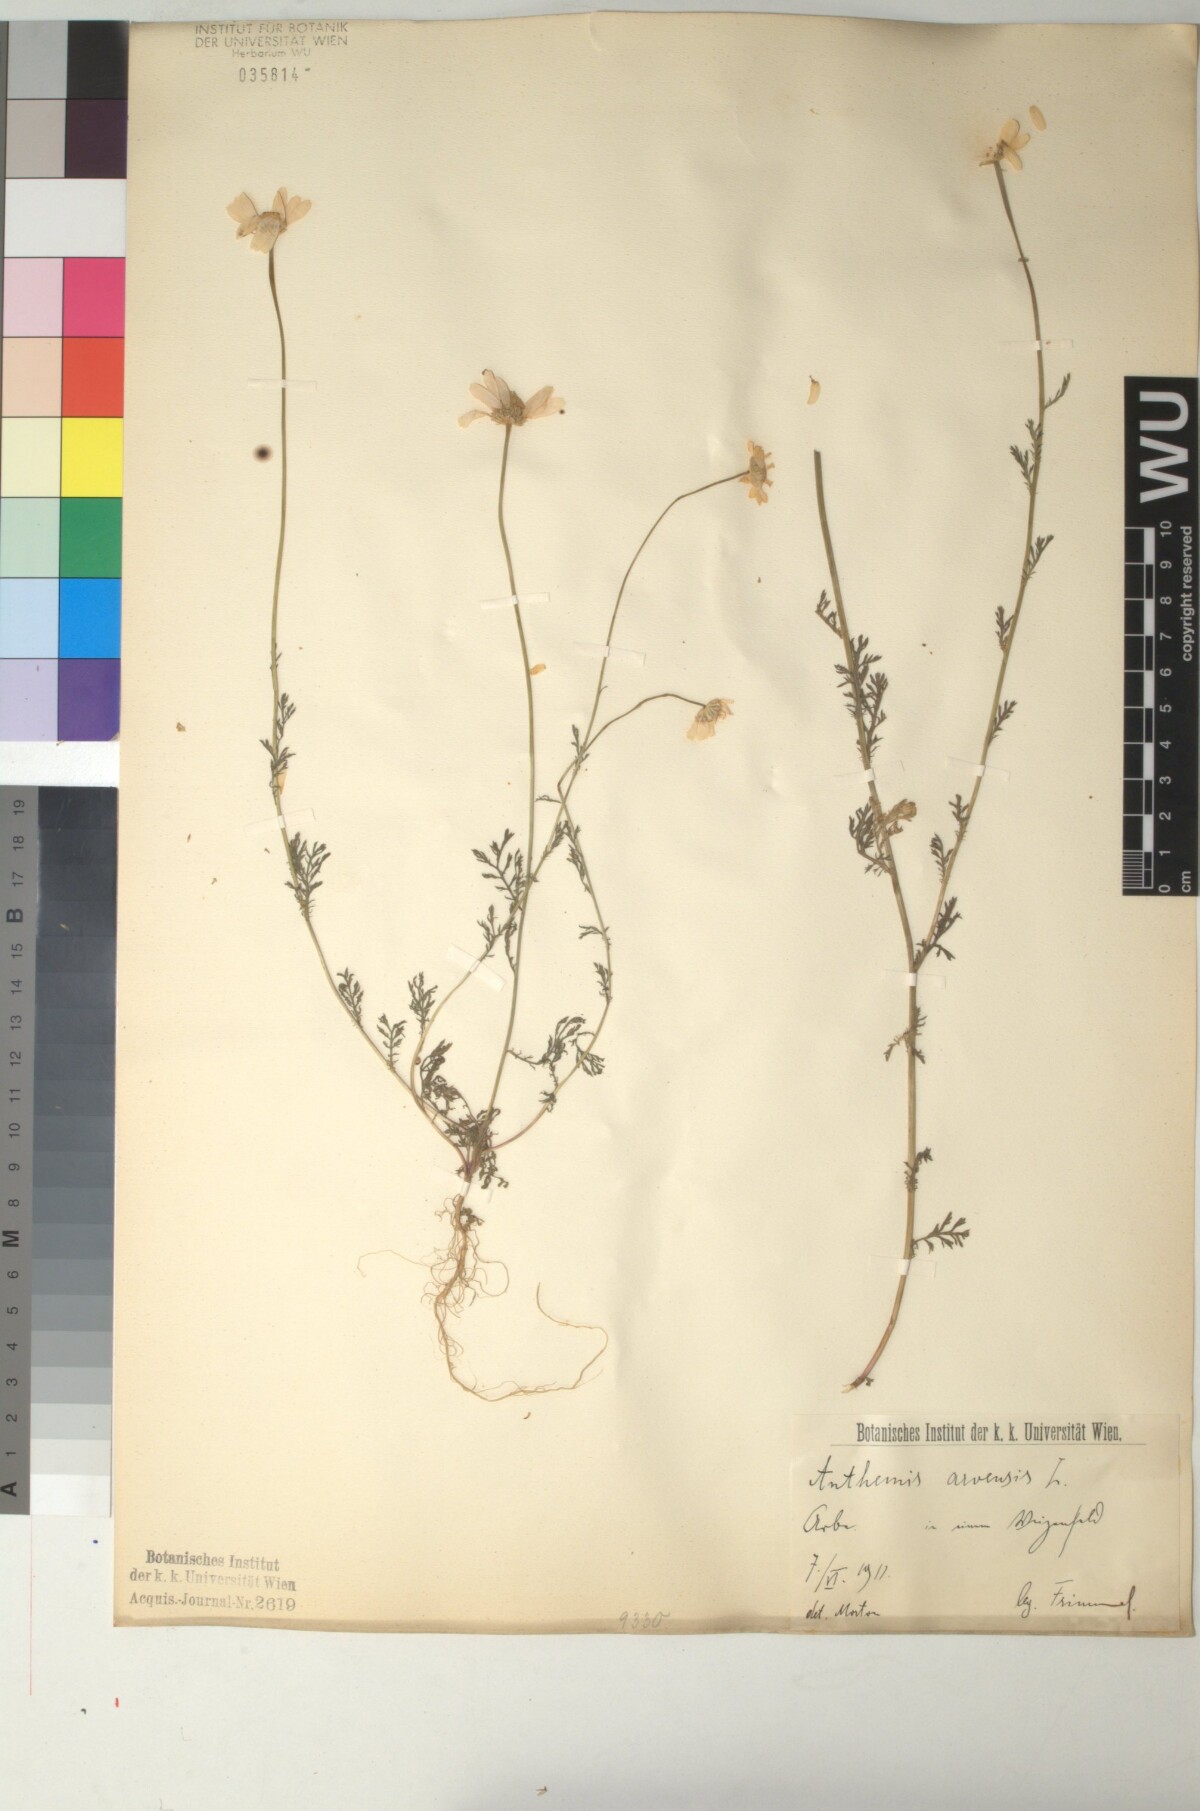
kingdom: Plantae
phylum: Tracheophyta
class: Magnoliopsida
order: Asterales
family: Asteraceae
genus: Anthemis
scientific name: Anthemis arvensis
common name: Corn chamomile
